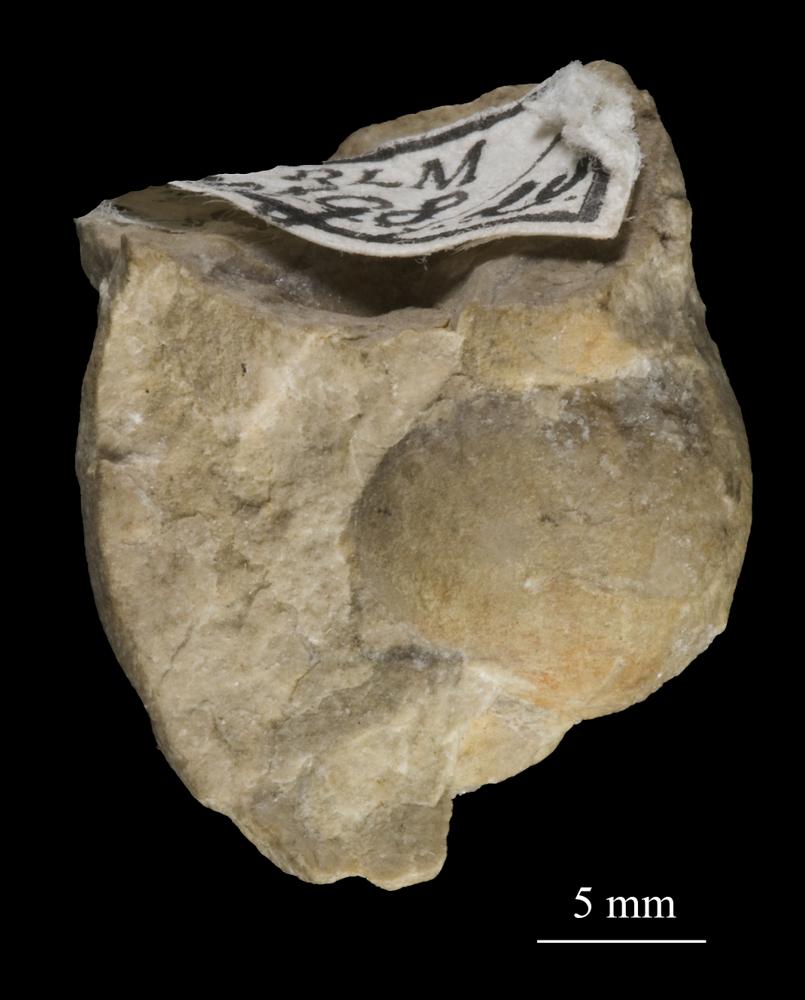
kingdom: Animalia
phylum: Mollusca
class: Gastropoda
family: Bucaniidae
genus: Tetranota
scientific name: Tetranota Bellerophon conspicuus
